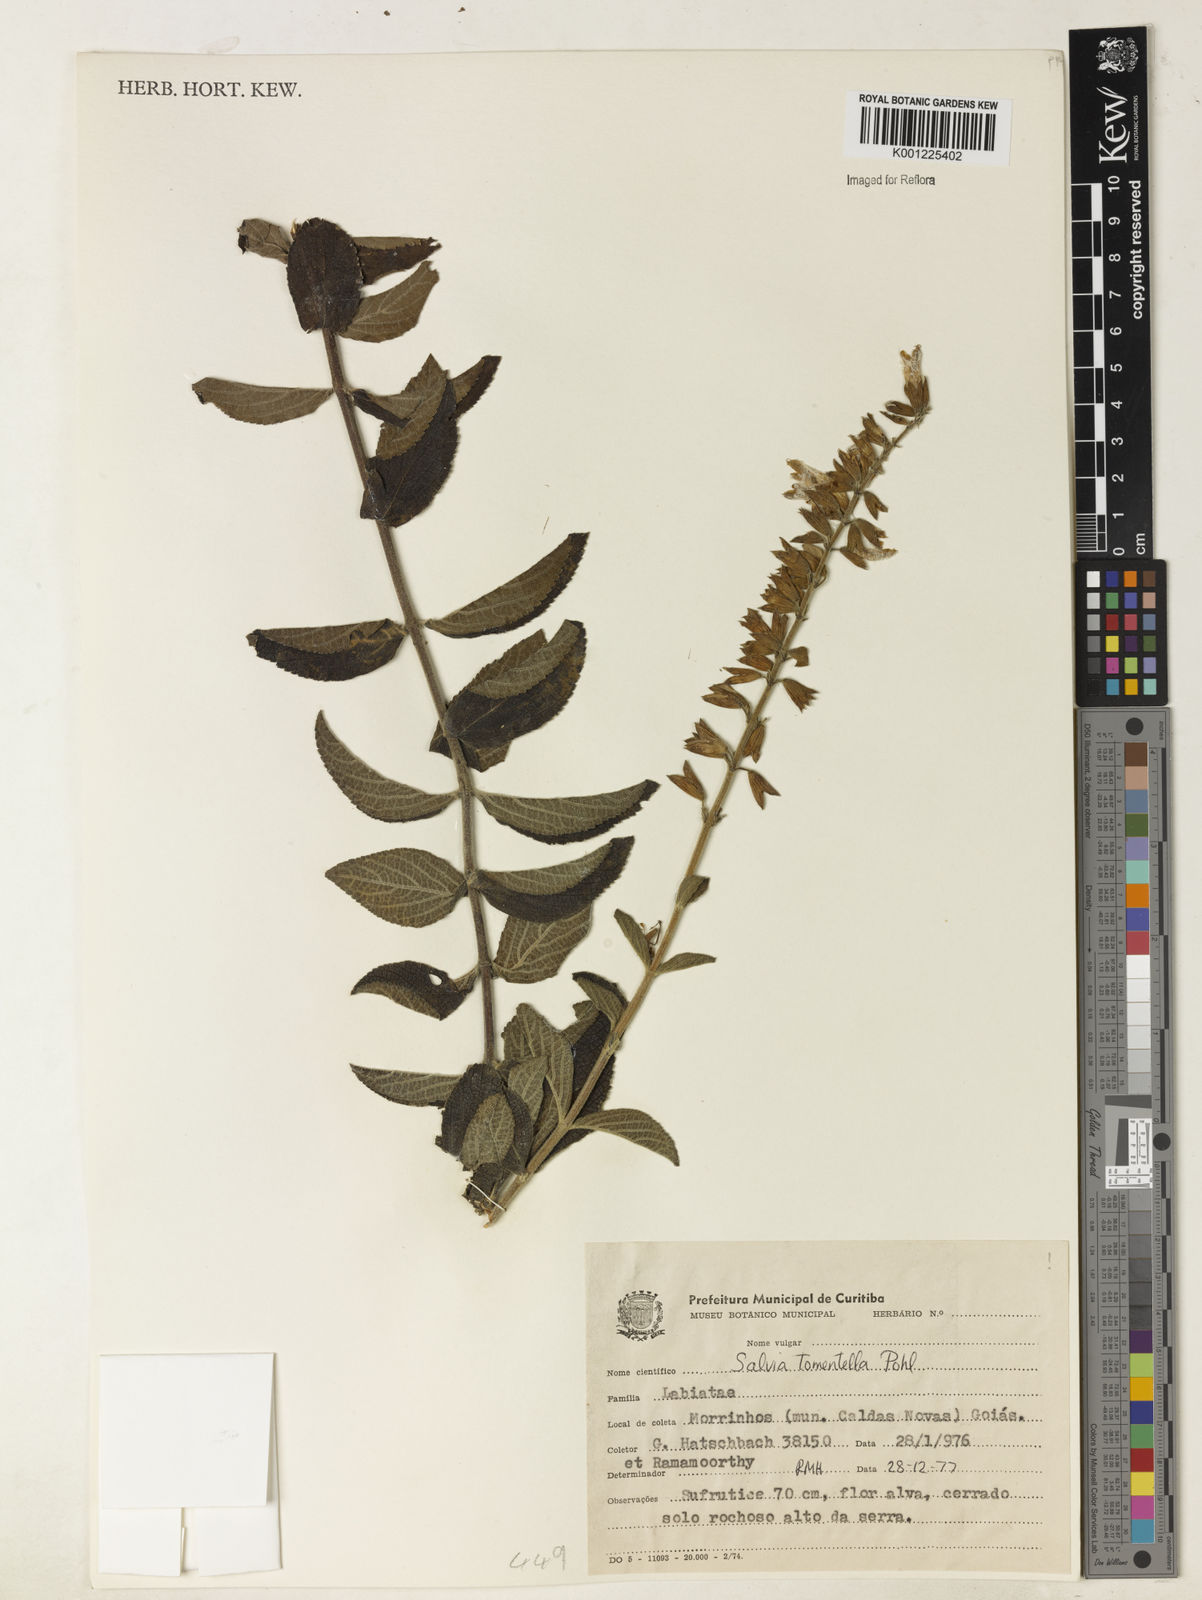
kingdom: Plantae
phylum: Tracheophyta
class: Magnoliopsida
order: Lamiales
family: Lamiaceae
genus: Salvia
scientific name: Salvia tomentella
